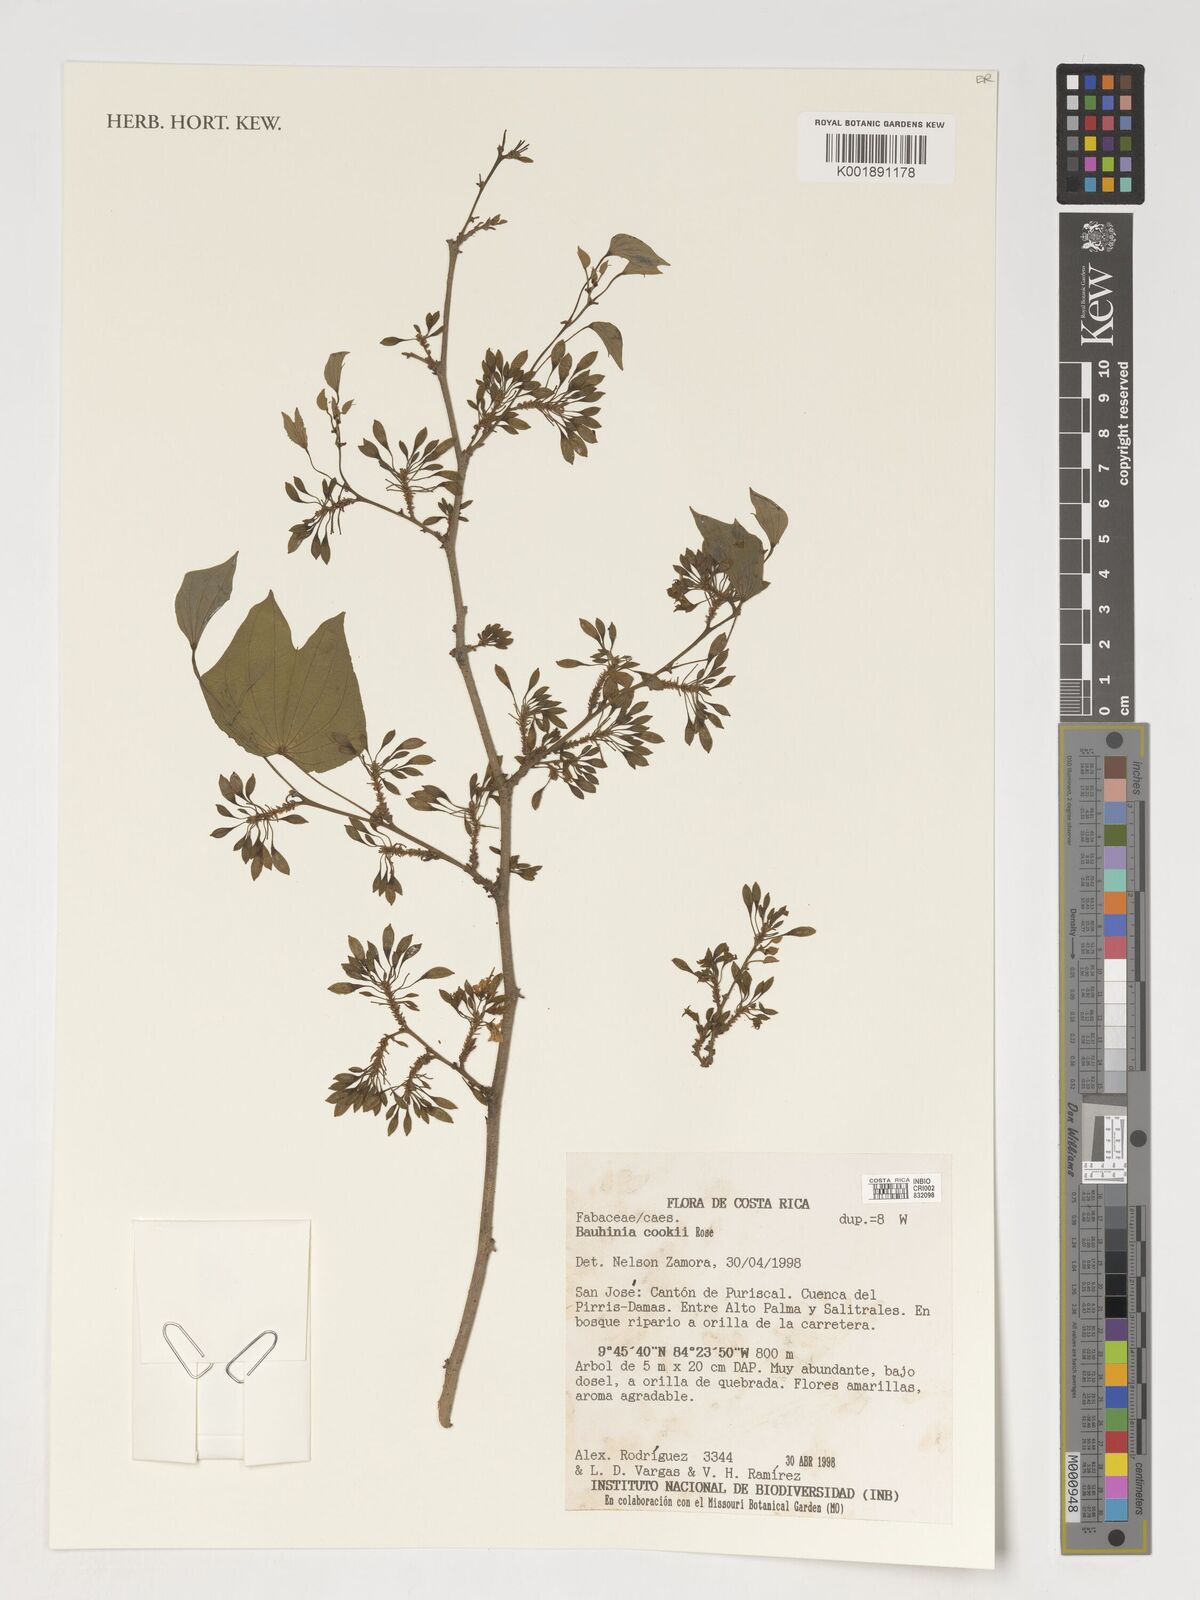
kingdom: Plantae
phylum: Tracheophyta
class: Magnoliopsida
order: Fabales
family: Fabaceae
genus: Bauhinia
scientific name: Bauhinia cookii
